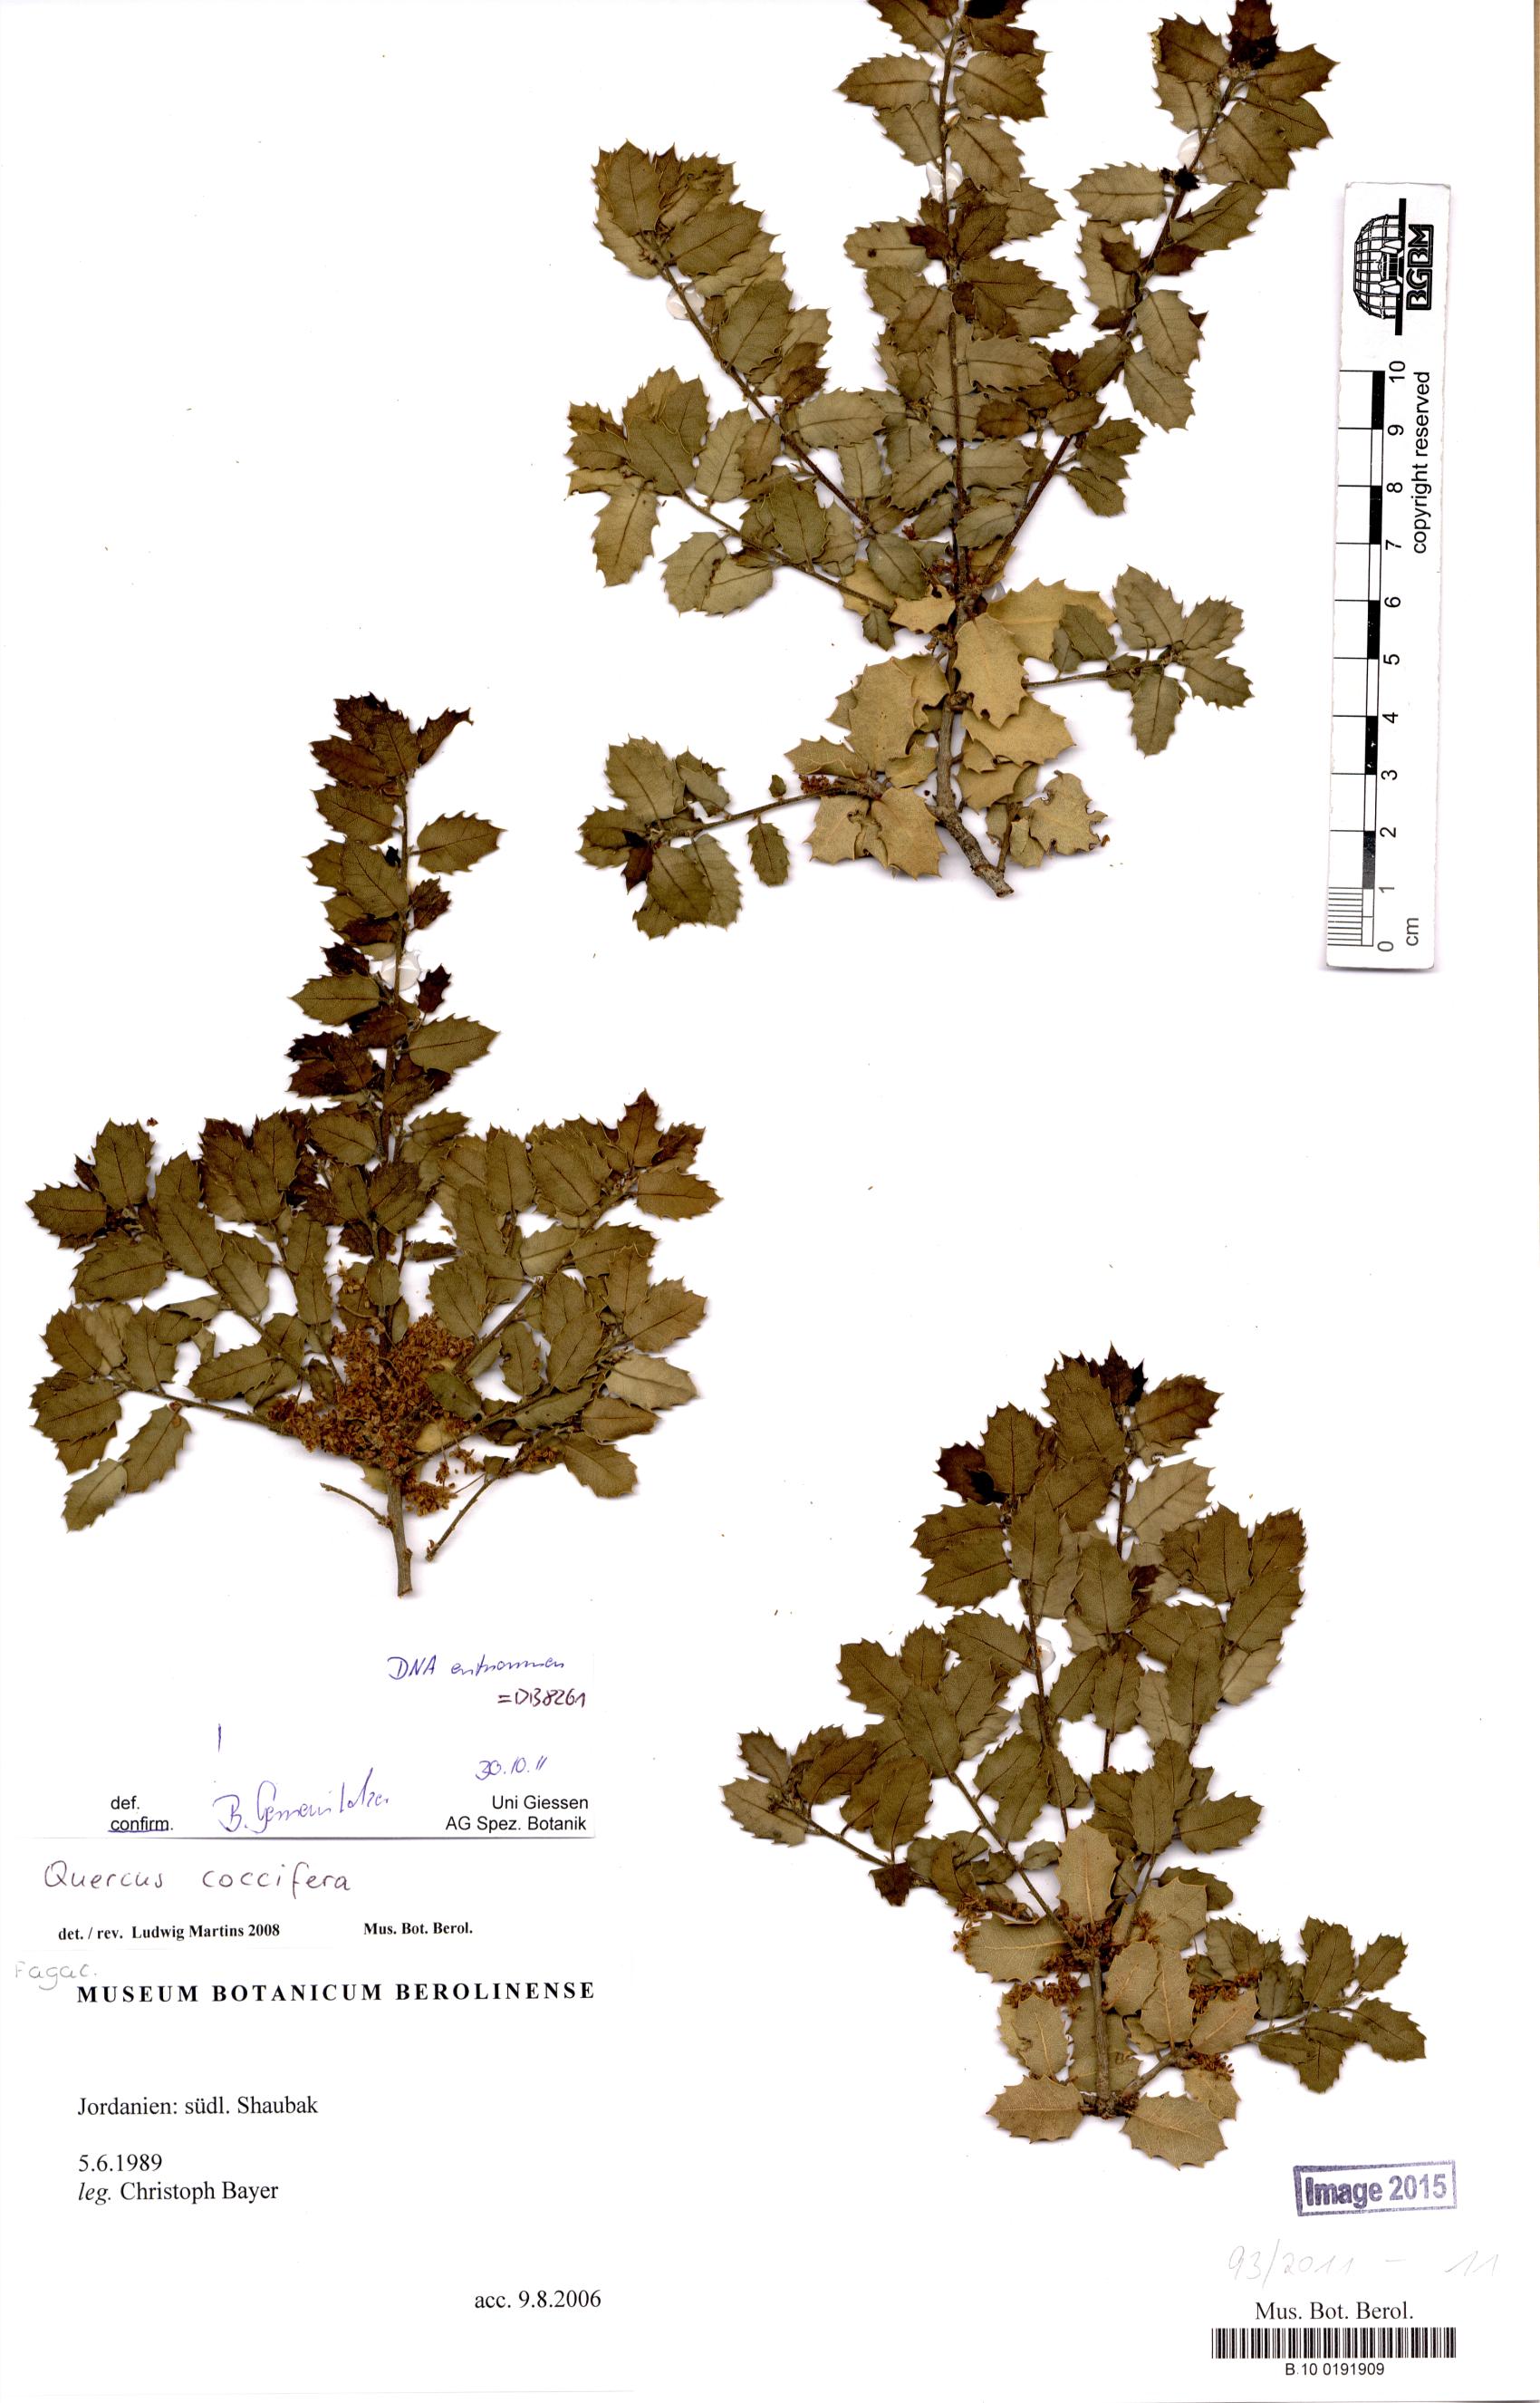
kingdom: Plantae
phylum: Tracheophyta
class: Magnoliopsida
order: Fagales
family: Fagaceae
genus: Quercus
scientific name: Quercus coccifera
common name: Kermes oak
